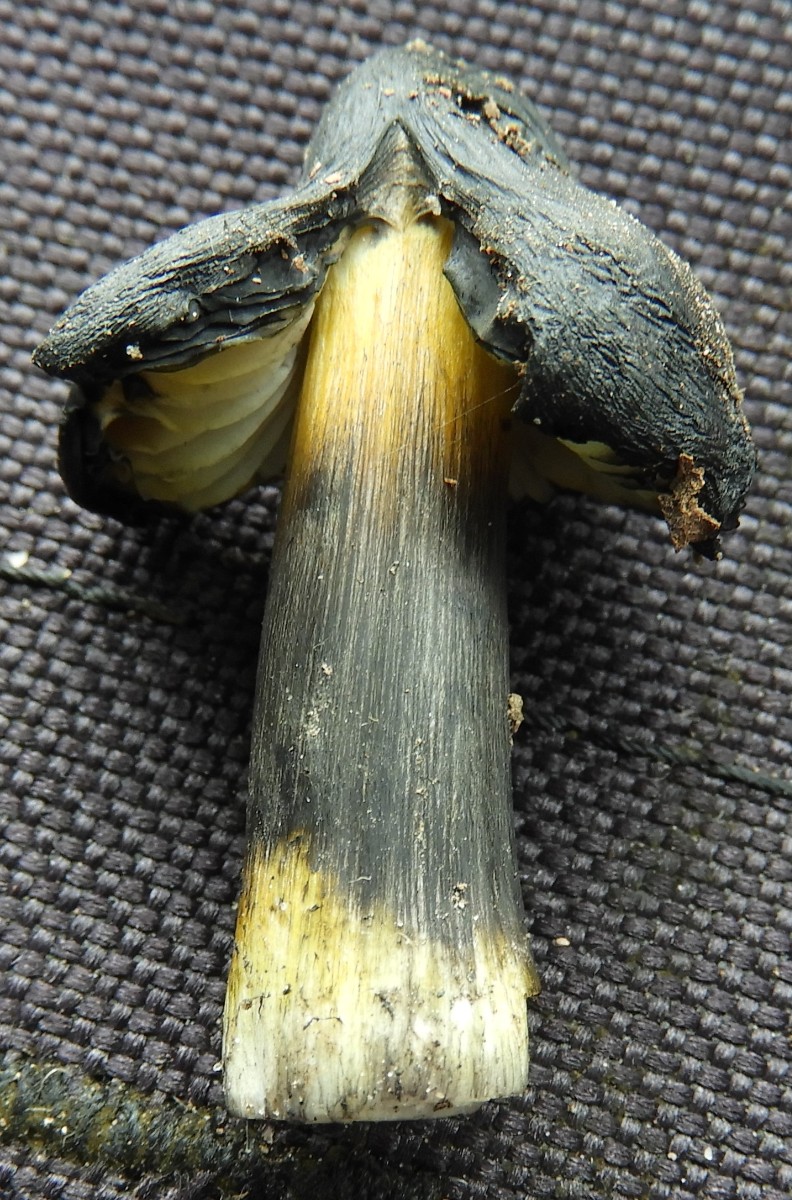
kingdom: Fungi
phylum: Basidiomycota
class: Agaricomycetes
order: Agaricales
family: Hygrophoraceae
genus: Hygrocybe
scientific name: Hygrocybe conica
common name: kegle-vokshat
